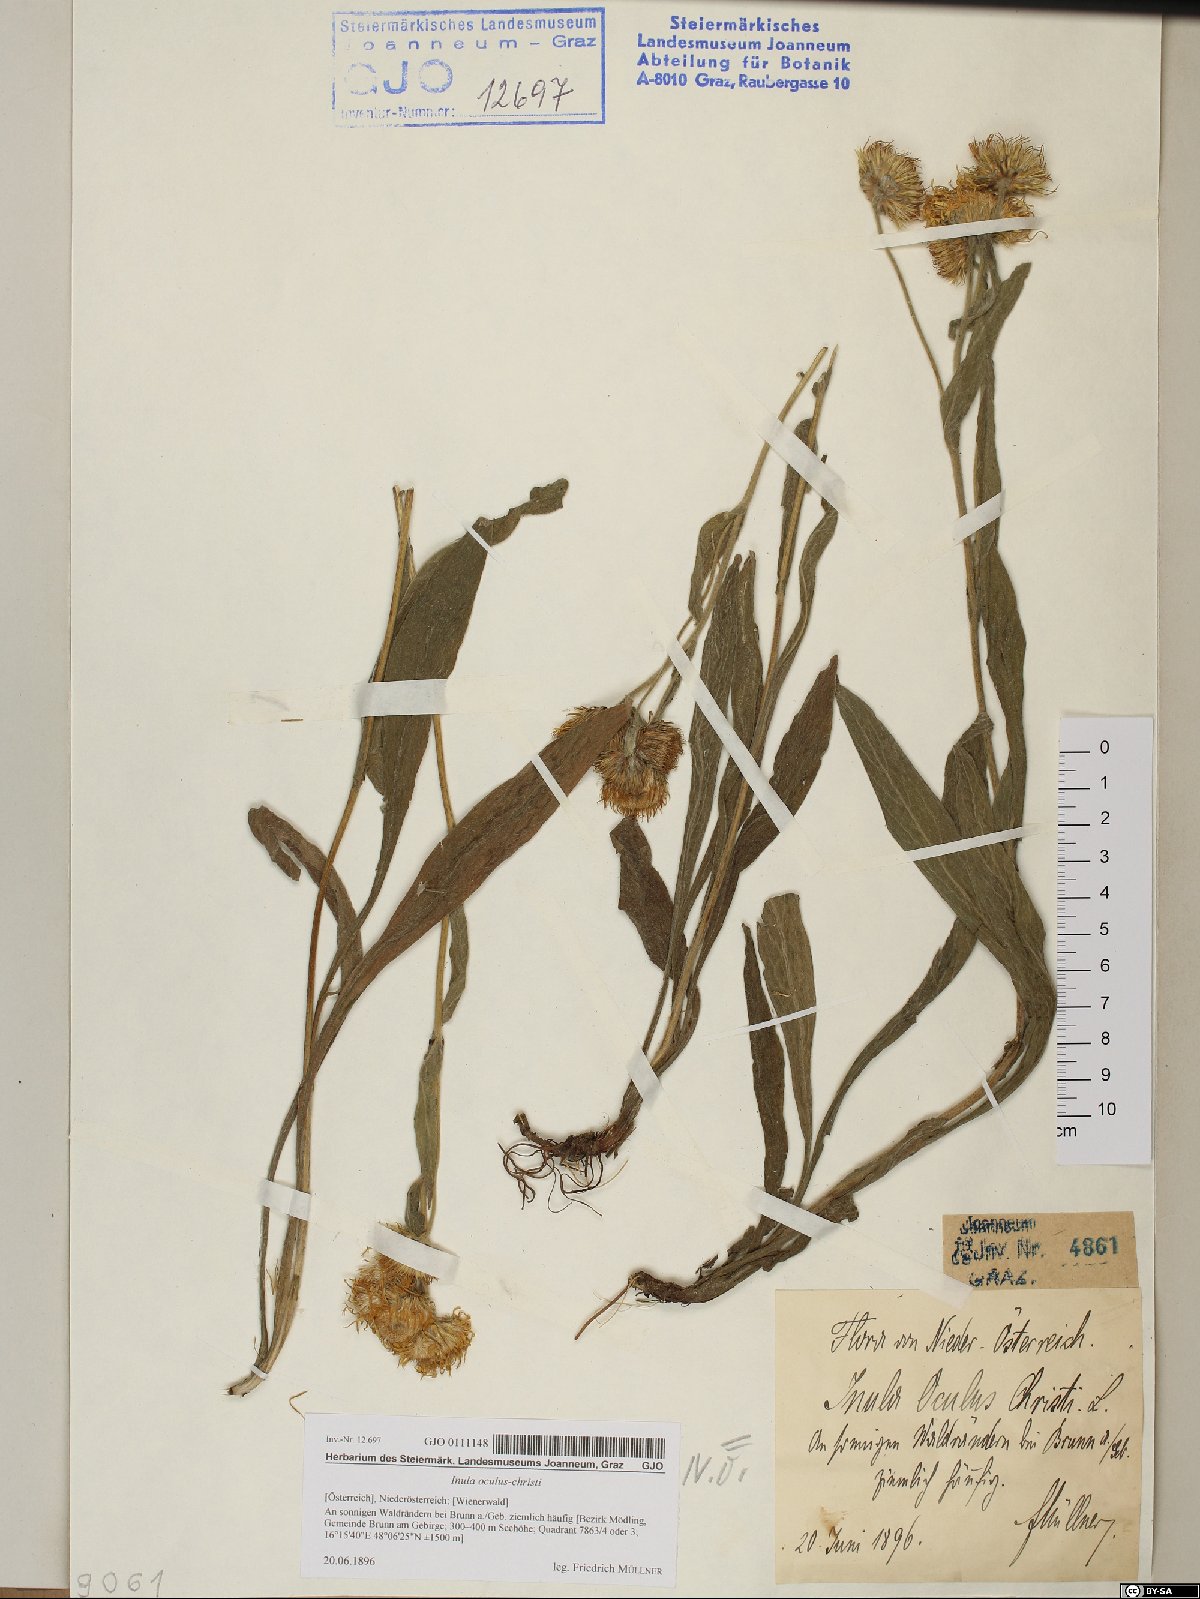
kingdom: Plantae
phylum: Tracheophyta
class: Magnoliopsida
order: Asterales
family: Asteraceae
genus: Pentanema
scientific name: Pentanema oculus-christi
